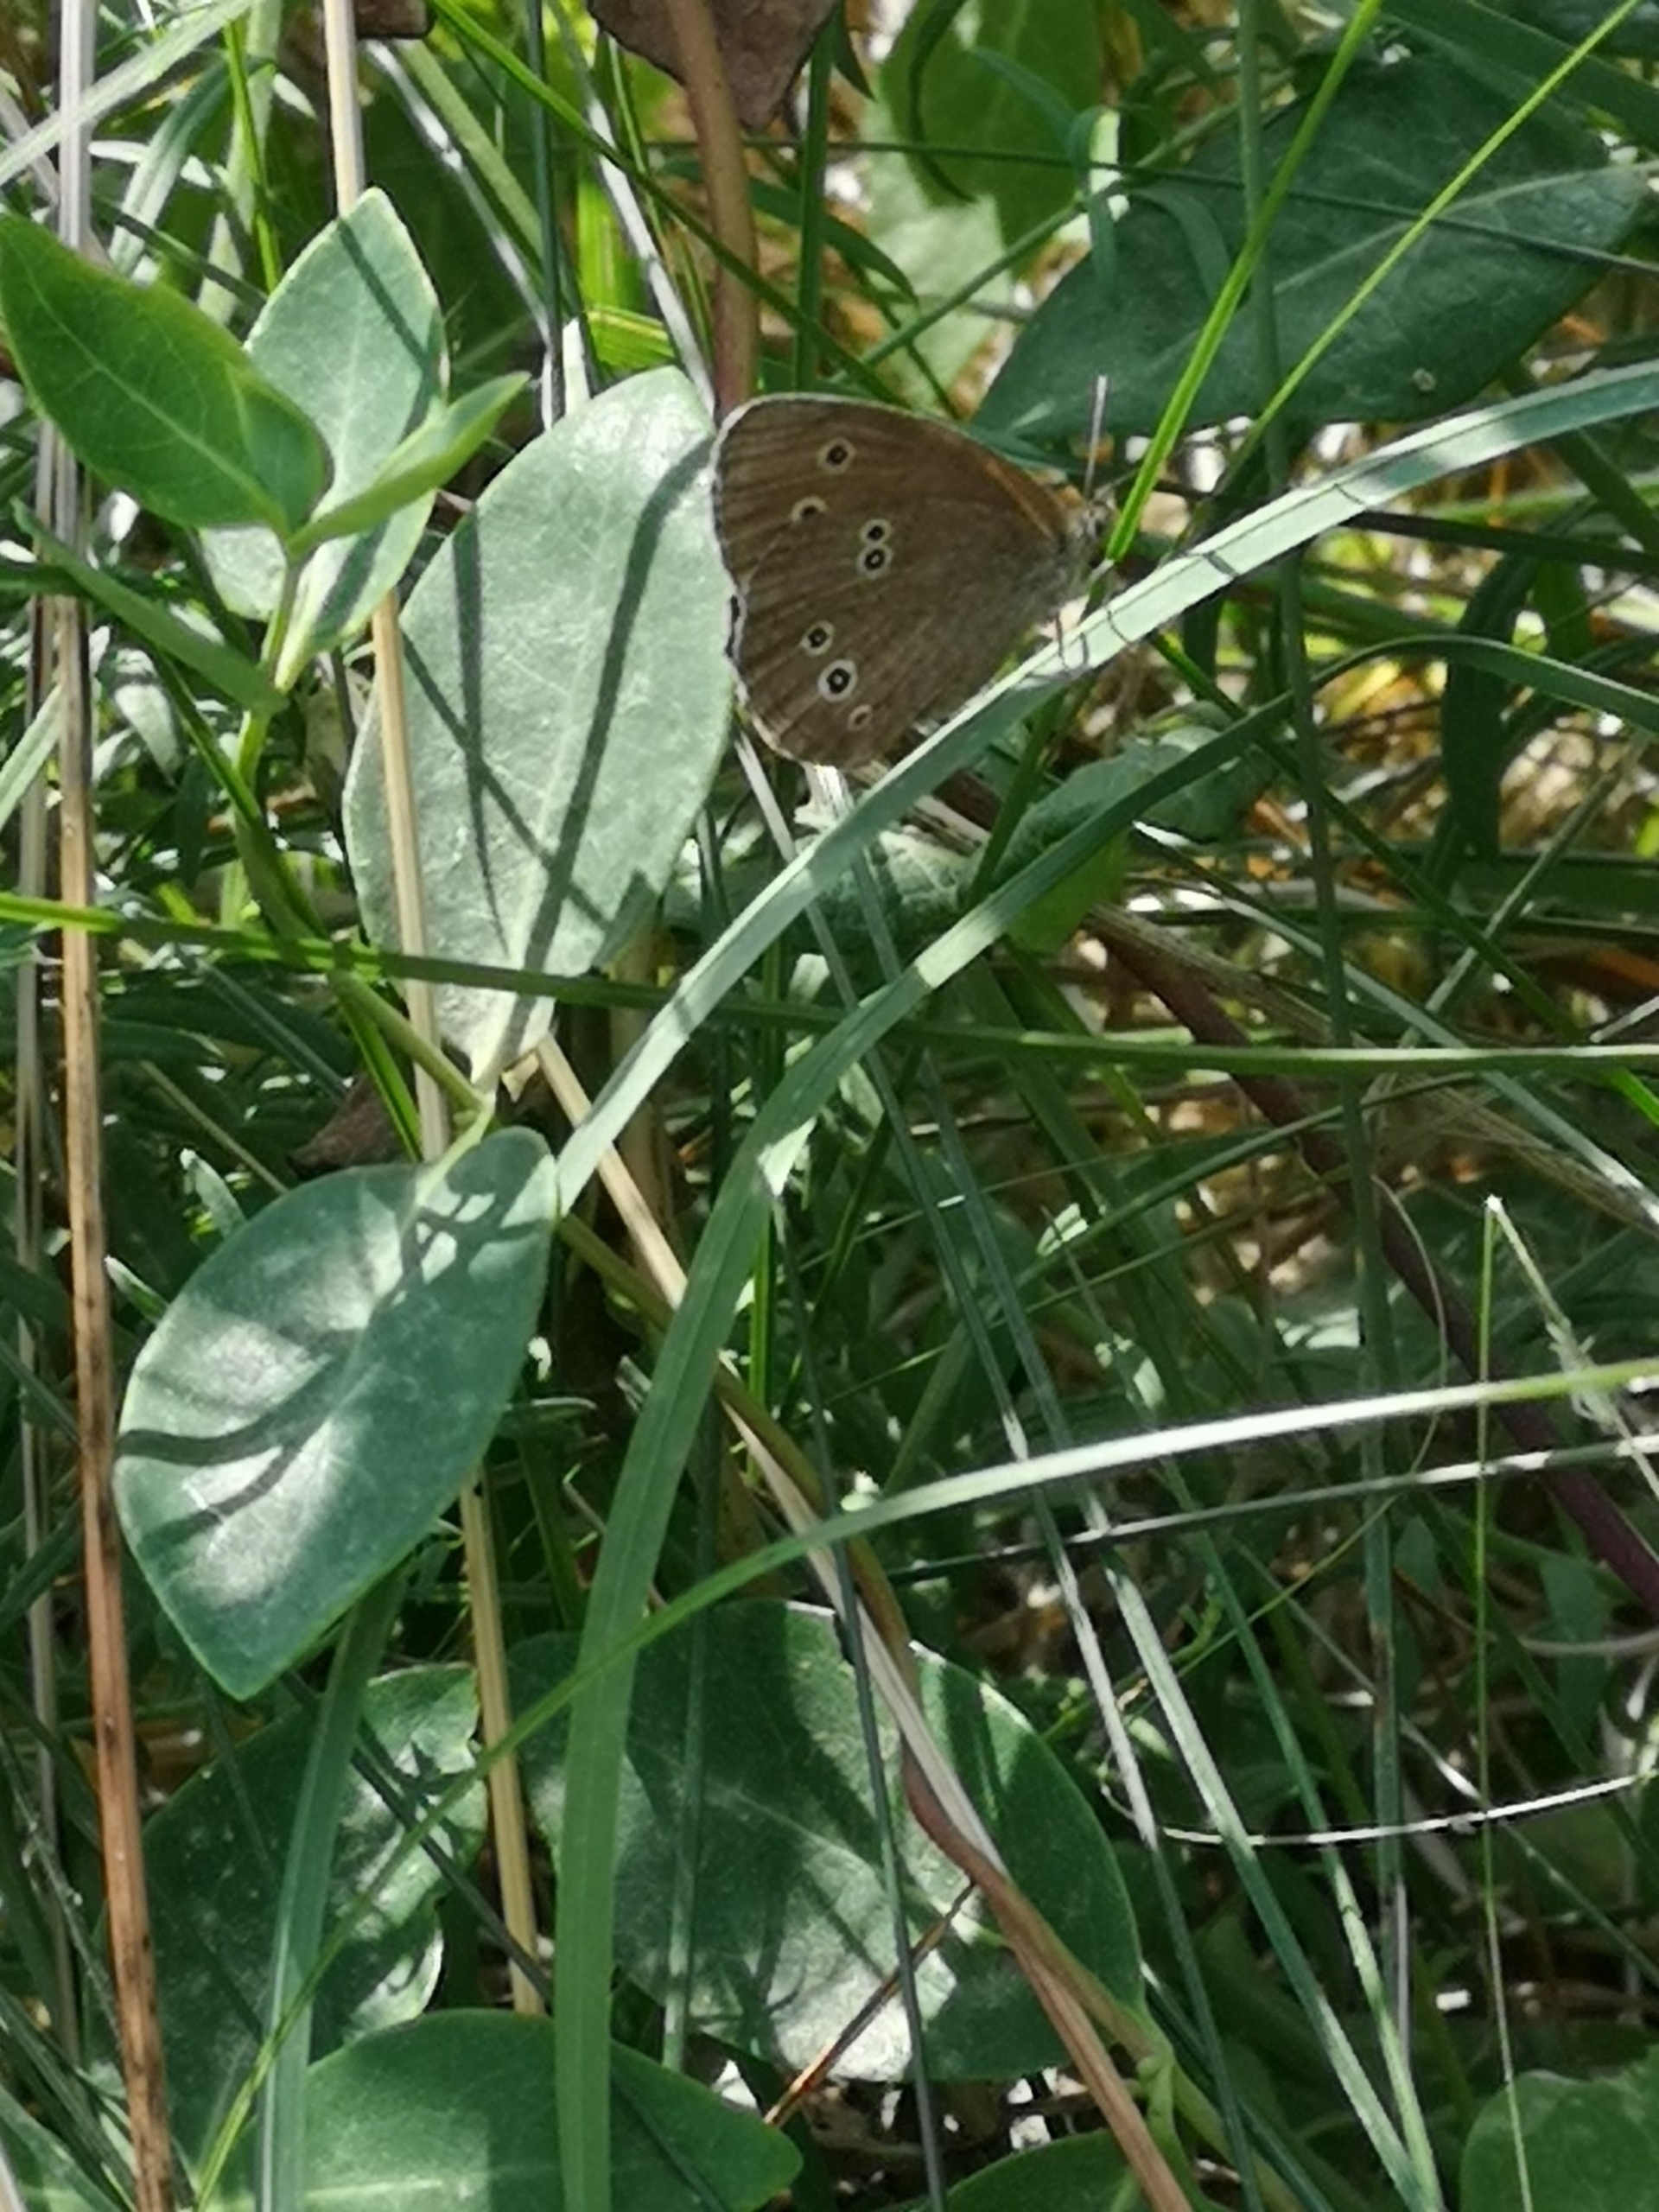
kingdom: Animalia
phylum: Arthropoda
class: Insecta
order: Lepidoptera
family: Nymphalidae
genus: Aphantopus
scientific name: Aphantopus hyperantus
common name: Engrandøje
